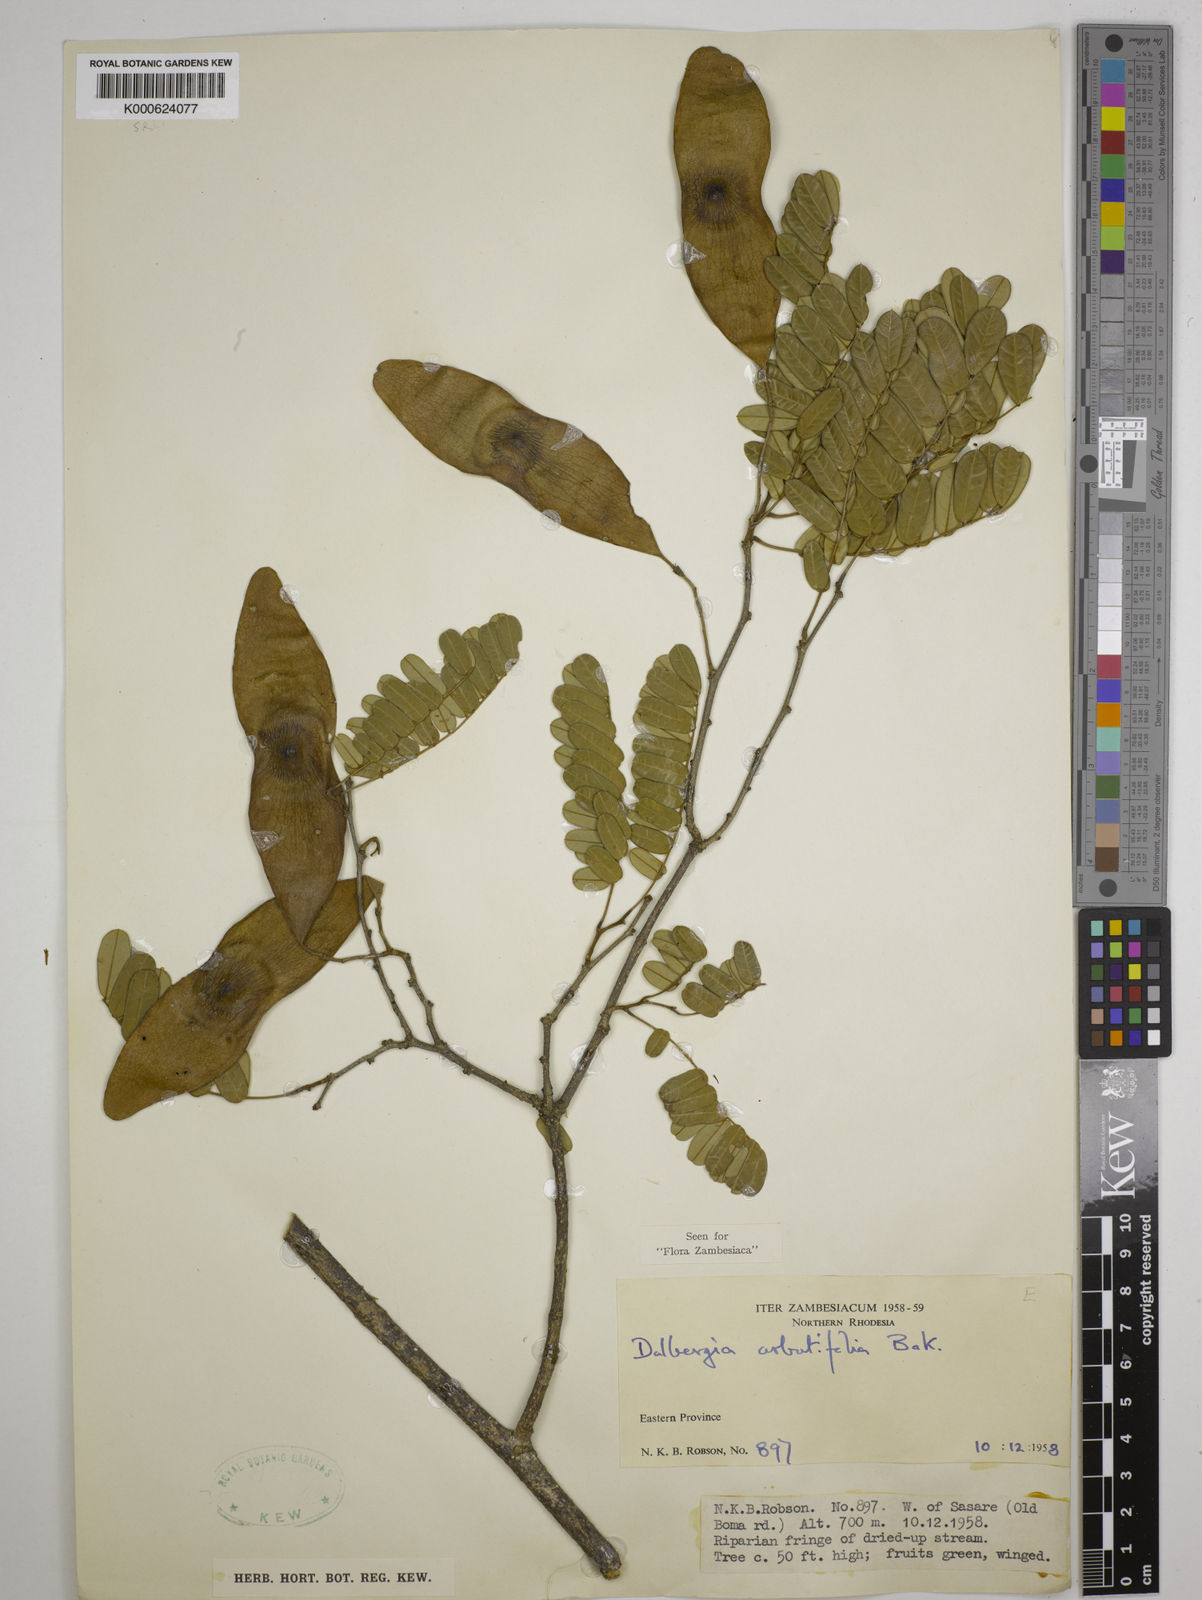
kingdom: Plantae
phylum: Tracheophyta
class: Magnoliopsida
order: Fabales
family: Fabaceae
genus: Dalbergia
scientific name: Dalbergia arbutifolia
